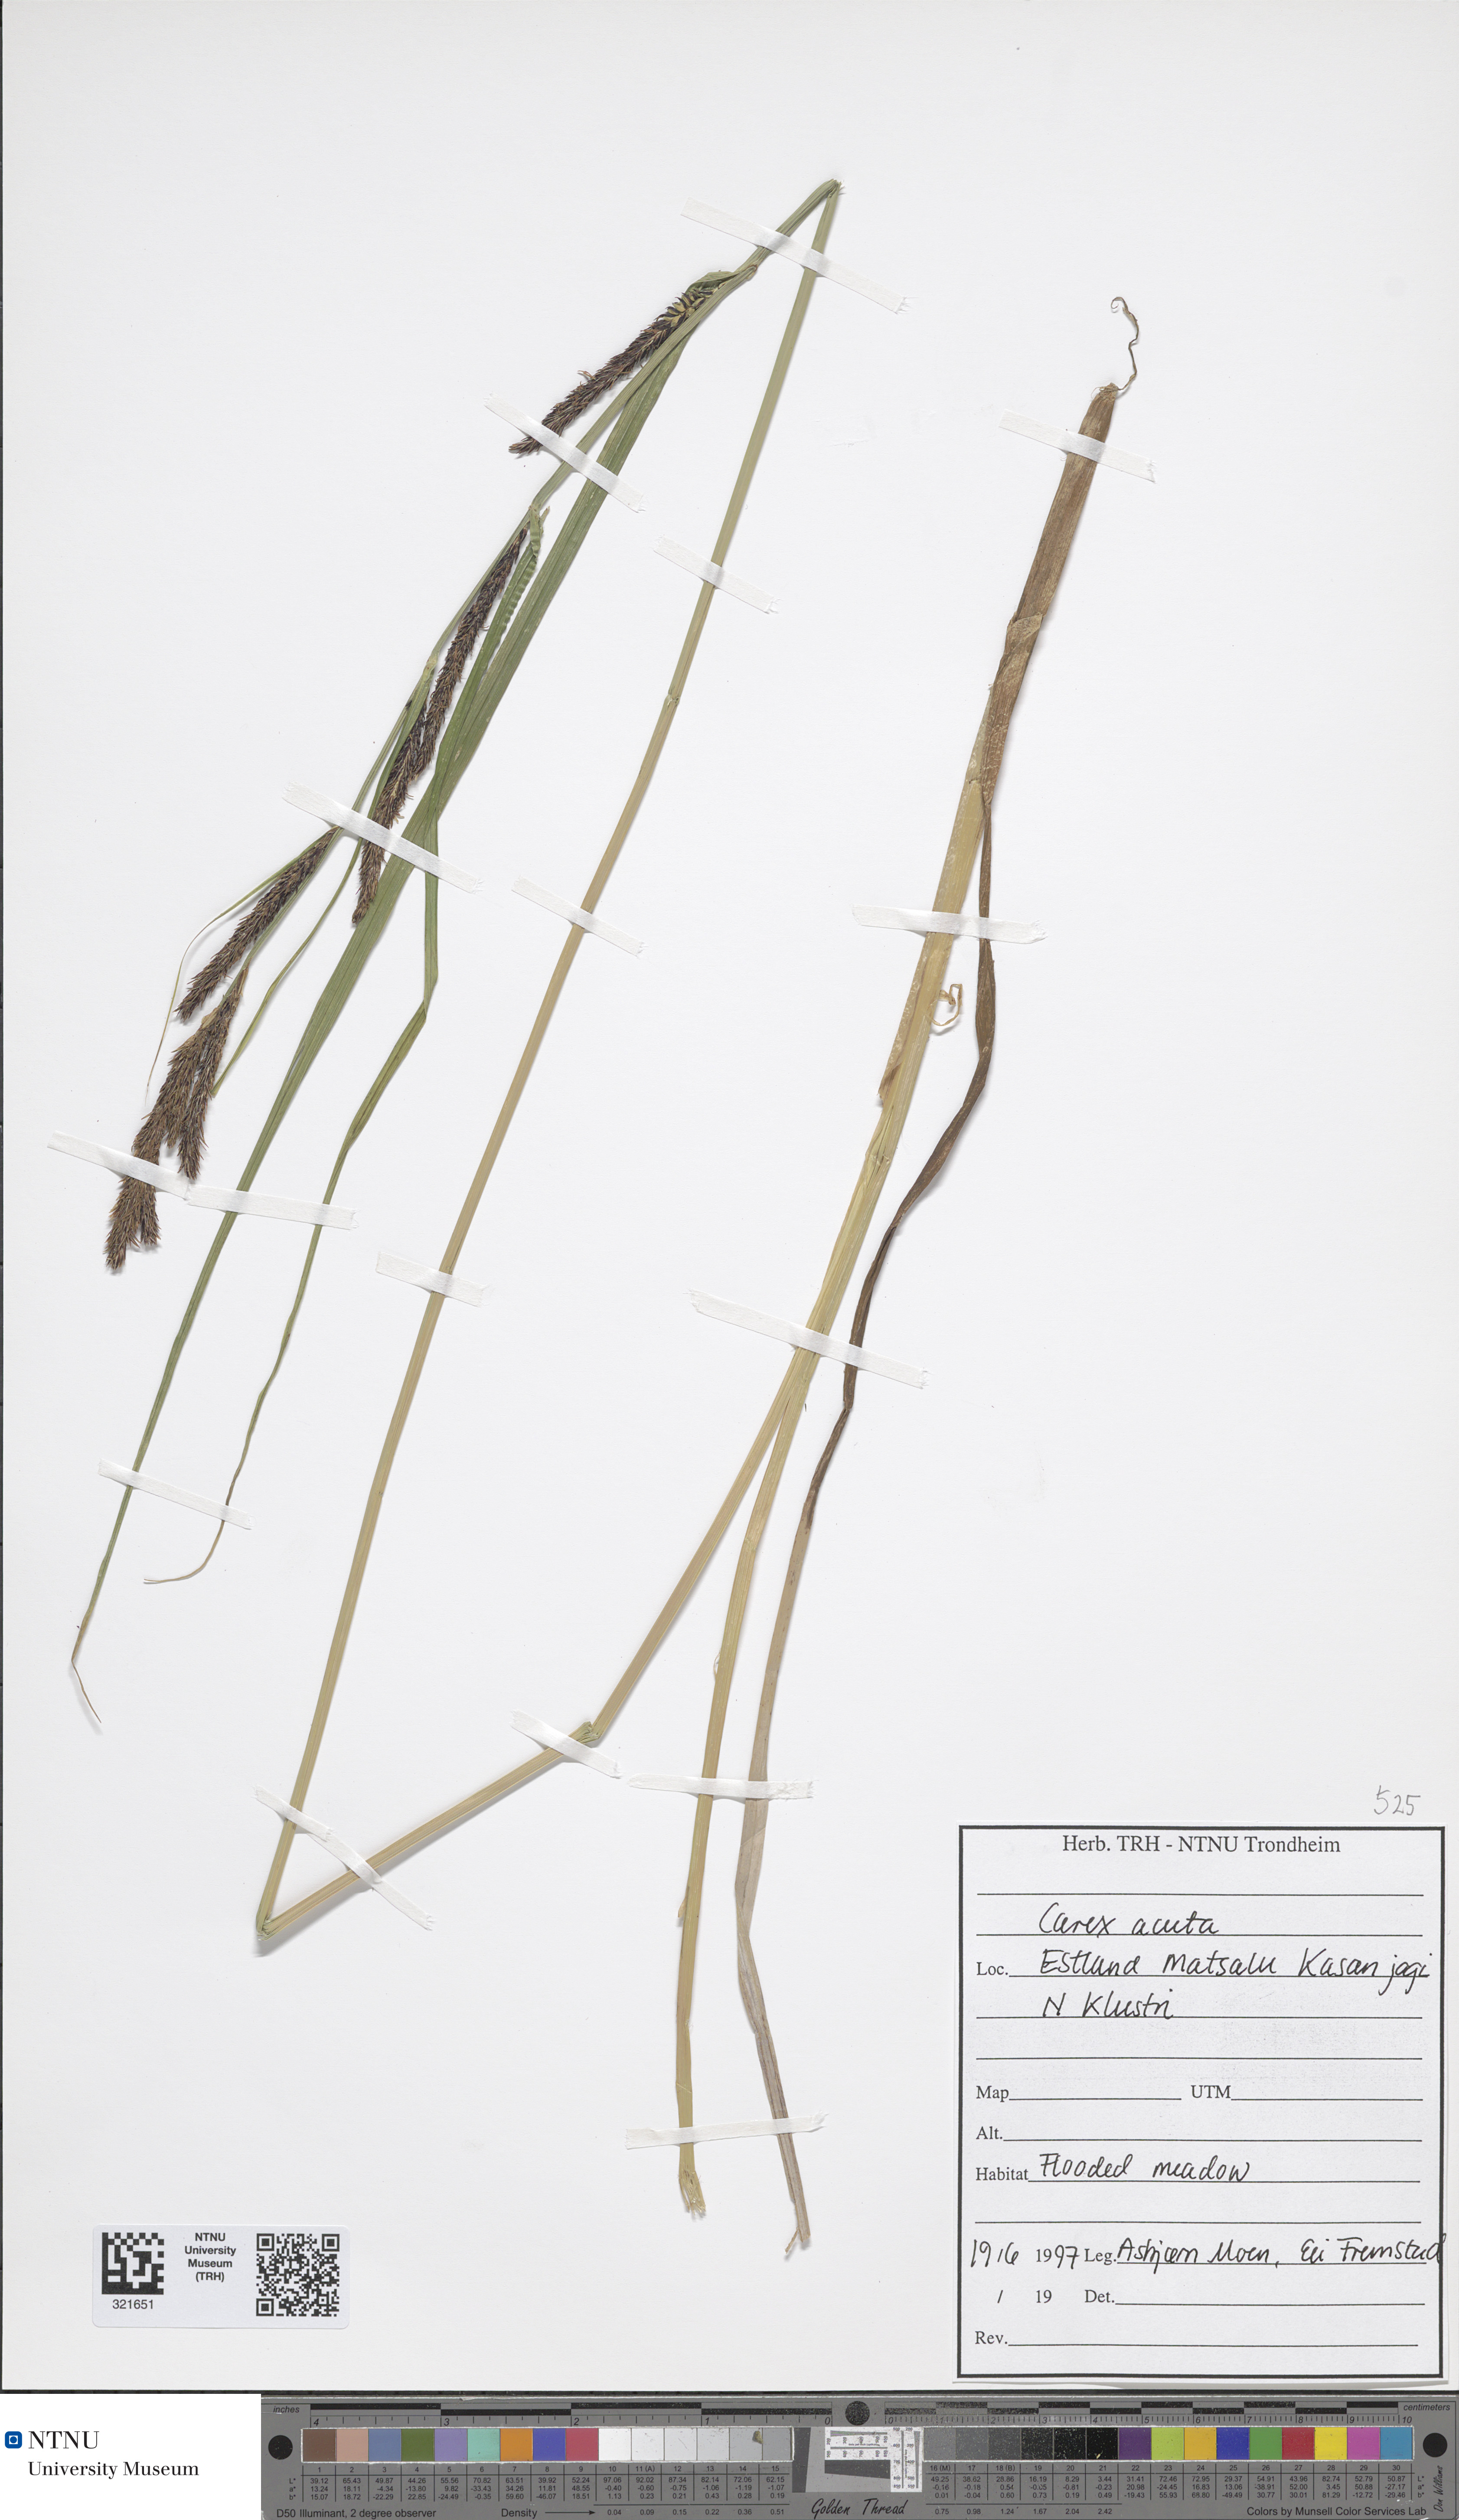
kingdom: Plantae
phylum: Tracheophyta
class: Liliopsida
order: Poales
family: Cyperaceae
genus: Carex
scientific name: Carex acuta
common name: Slender tufted-sedge
